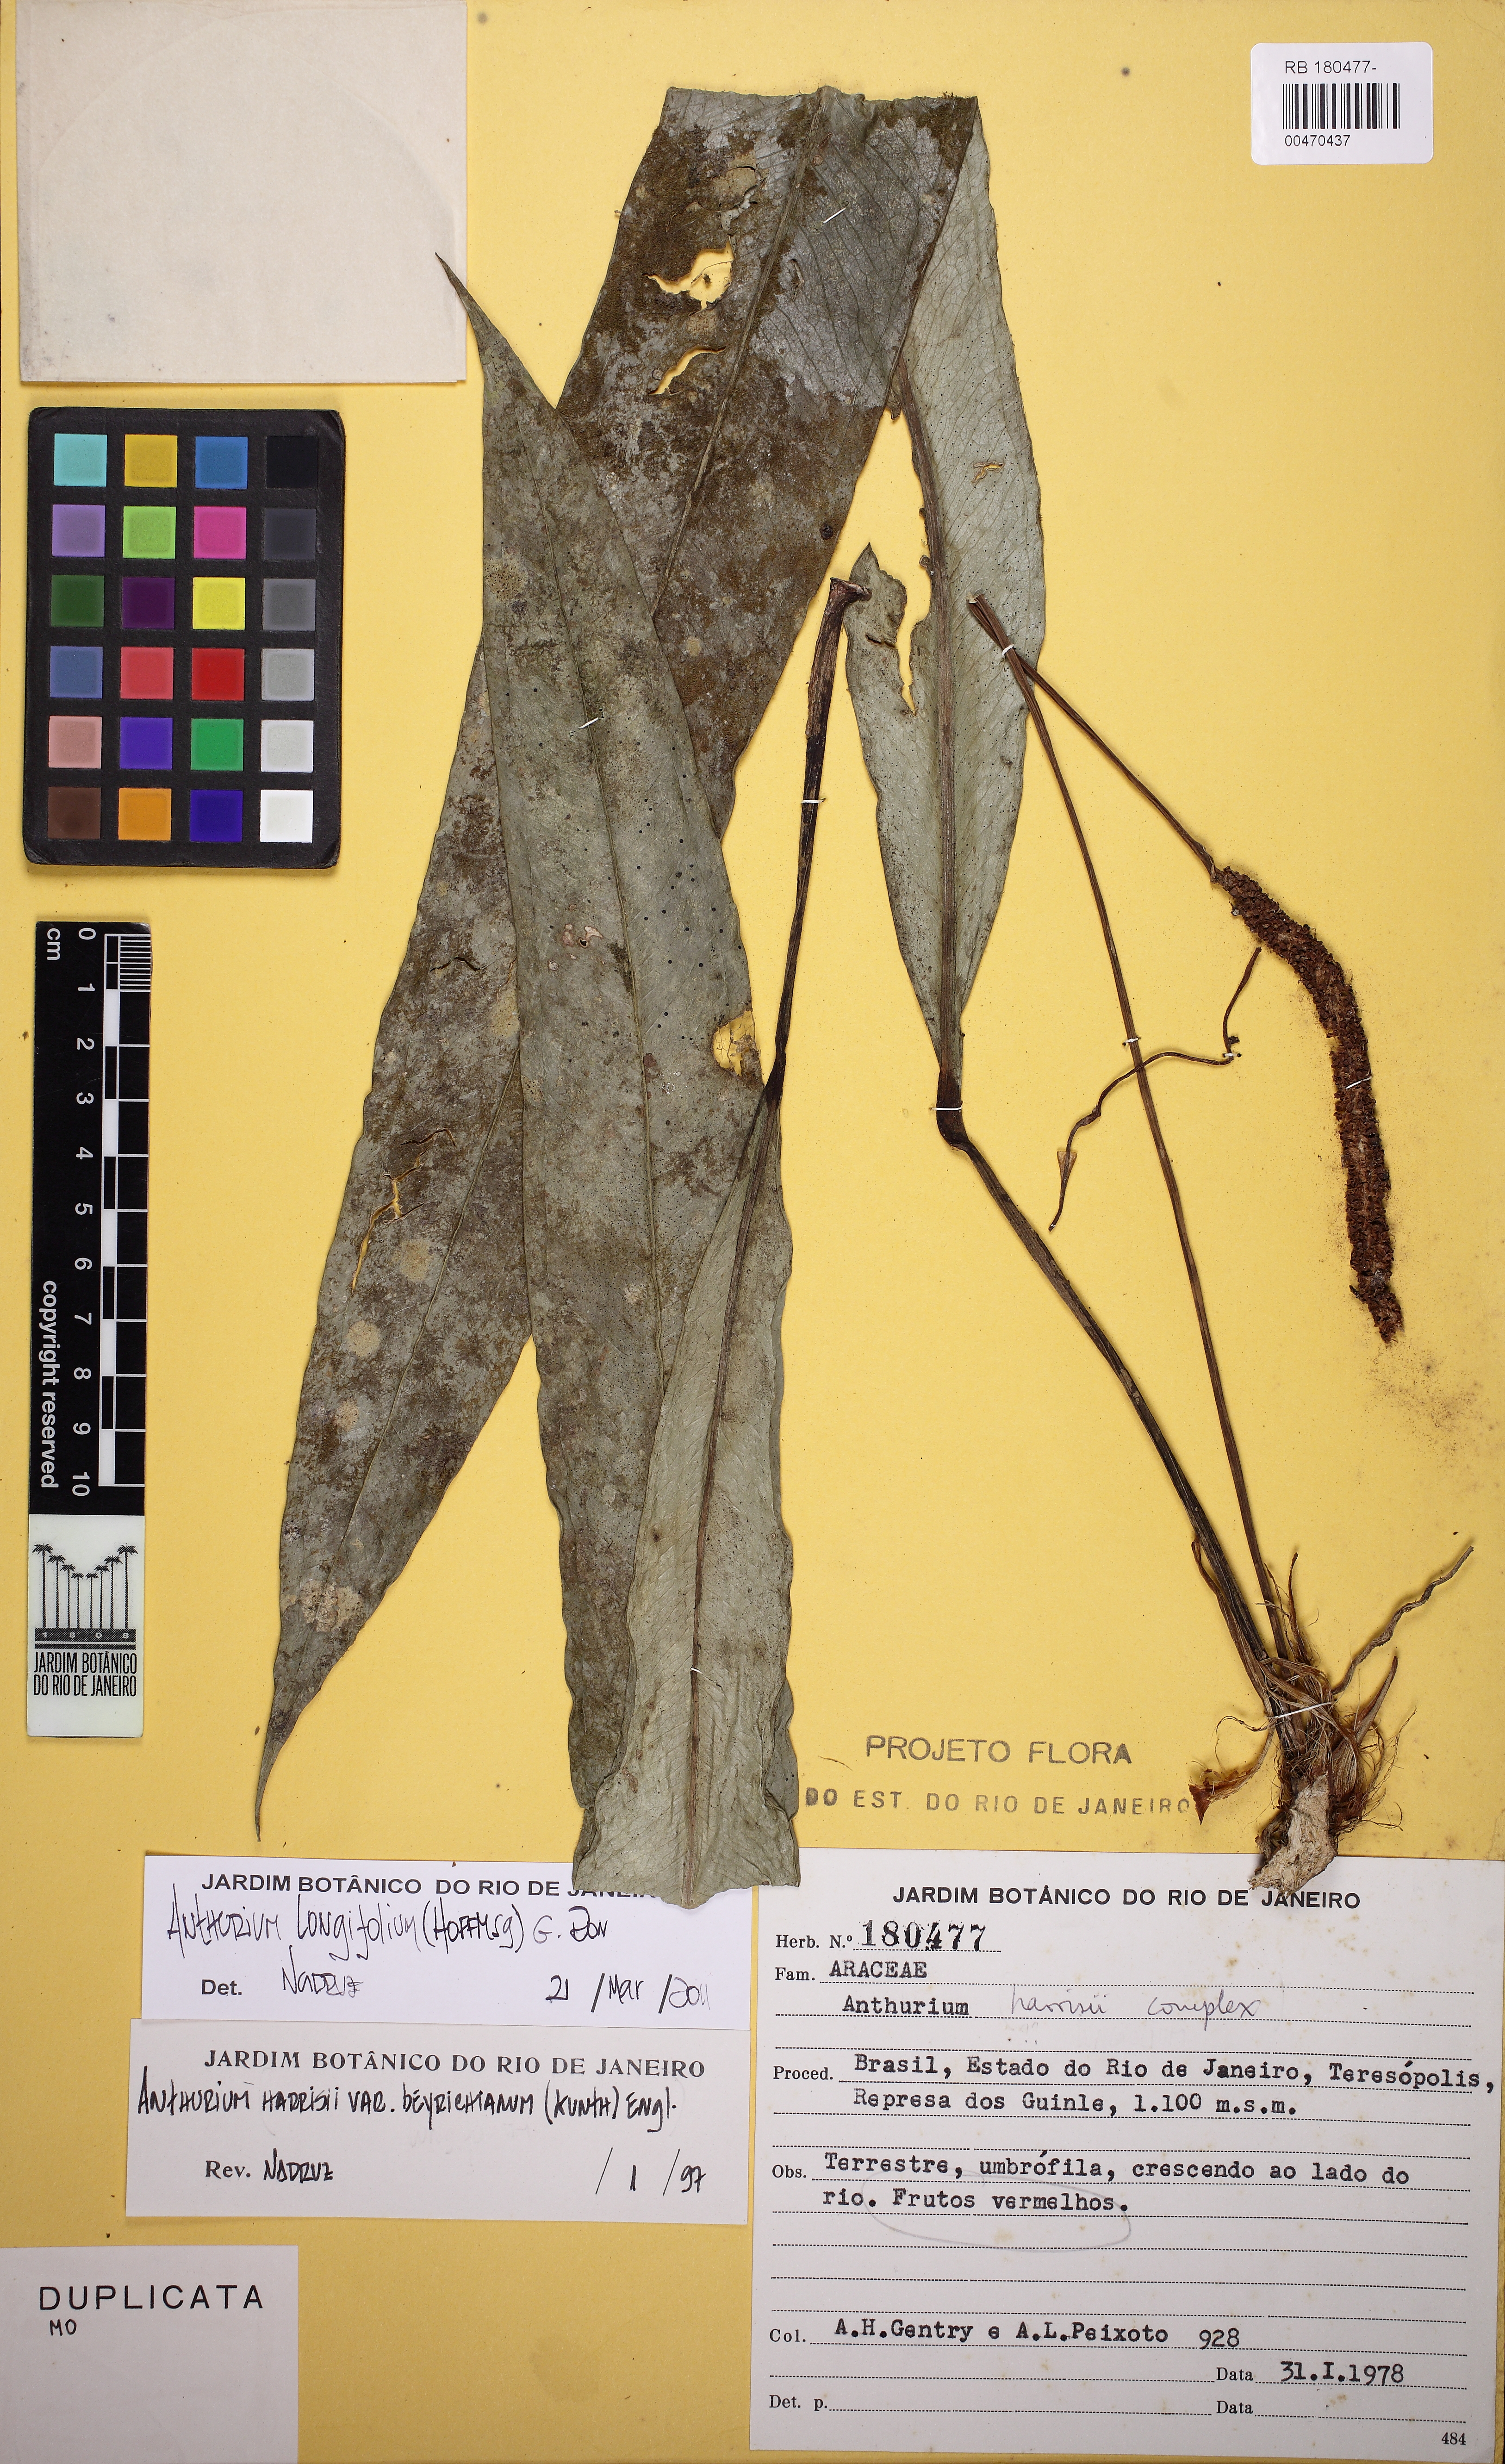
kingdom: Plantae
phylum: Tracheophyta
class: Liliopsida
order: Alismatales
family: Araceae
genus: Anthurium
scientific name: Anthurium longifolium
